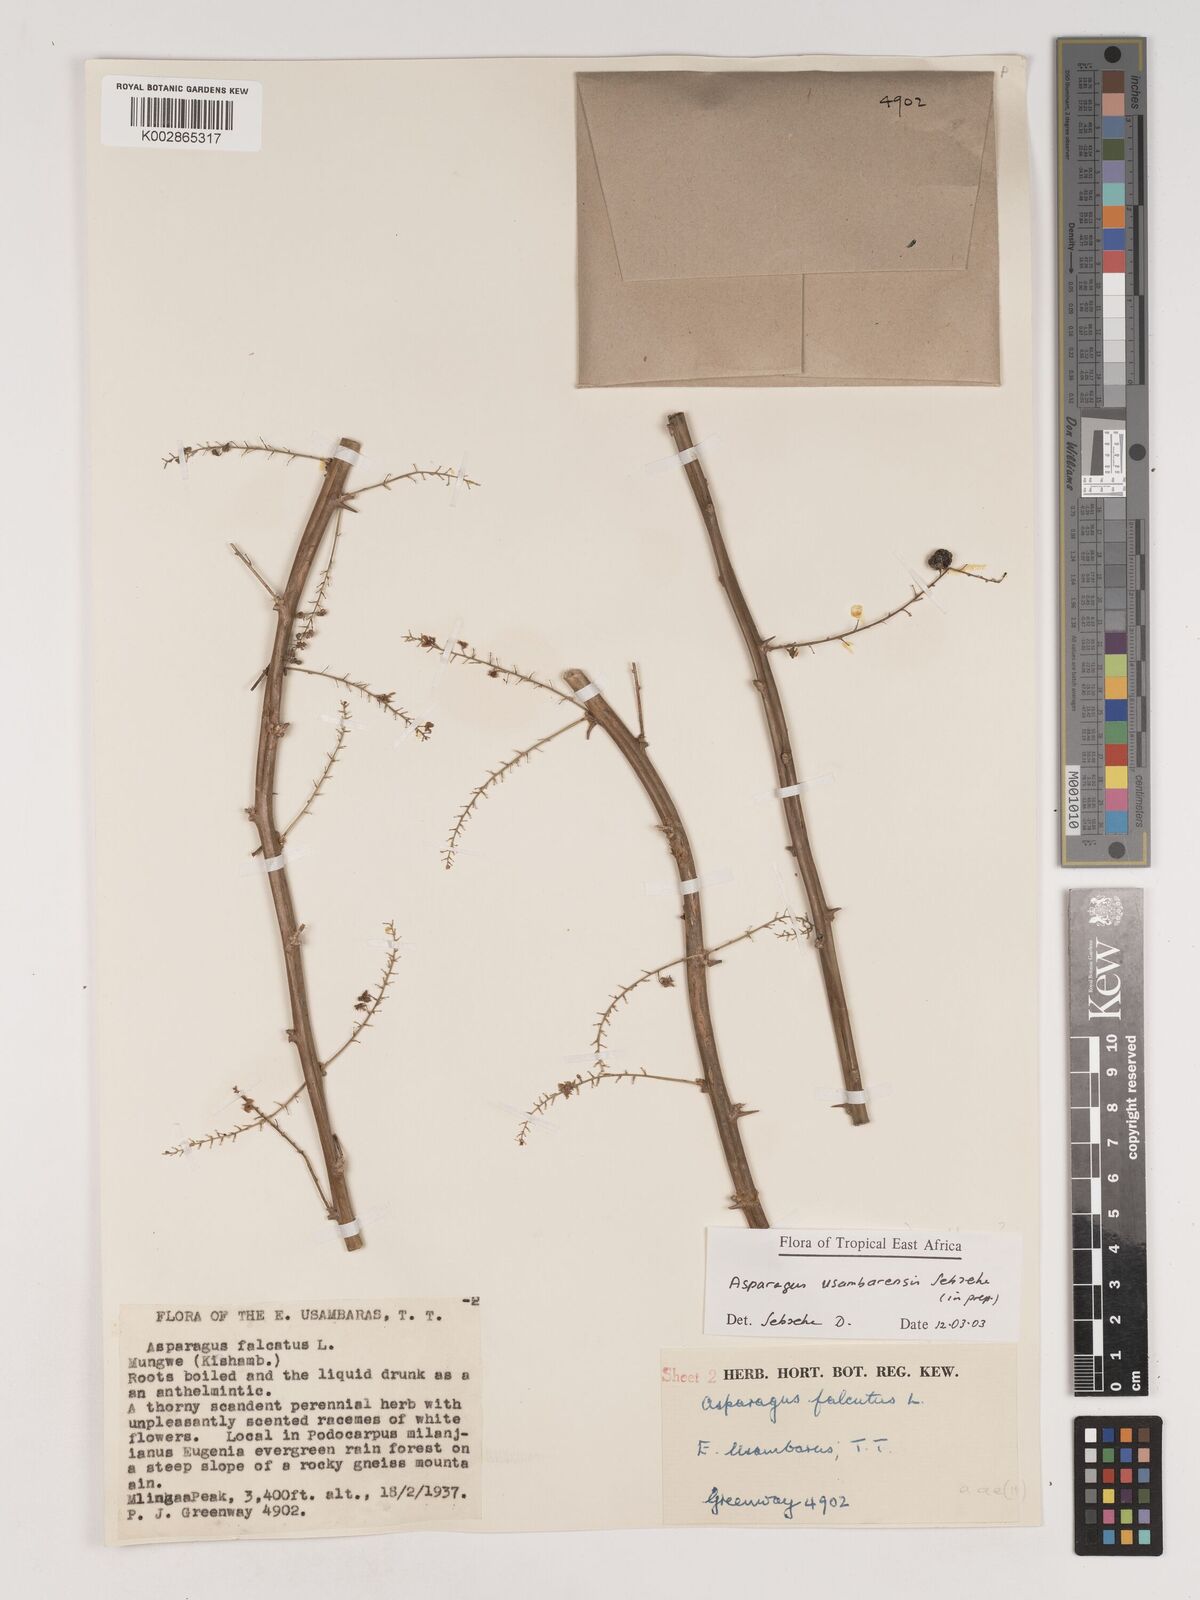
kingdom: Plantae
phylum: Tracheophyta
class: Liliopsida
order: Asparagales
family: Asparagaceae
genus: Asparagus
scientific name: Asparagus usambarensis
